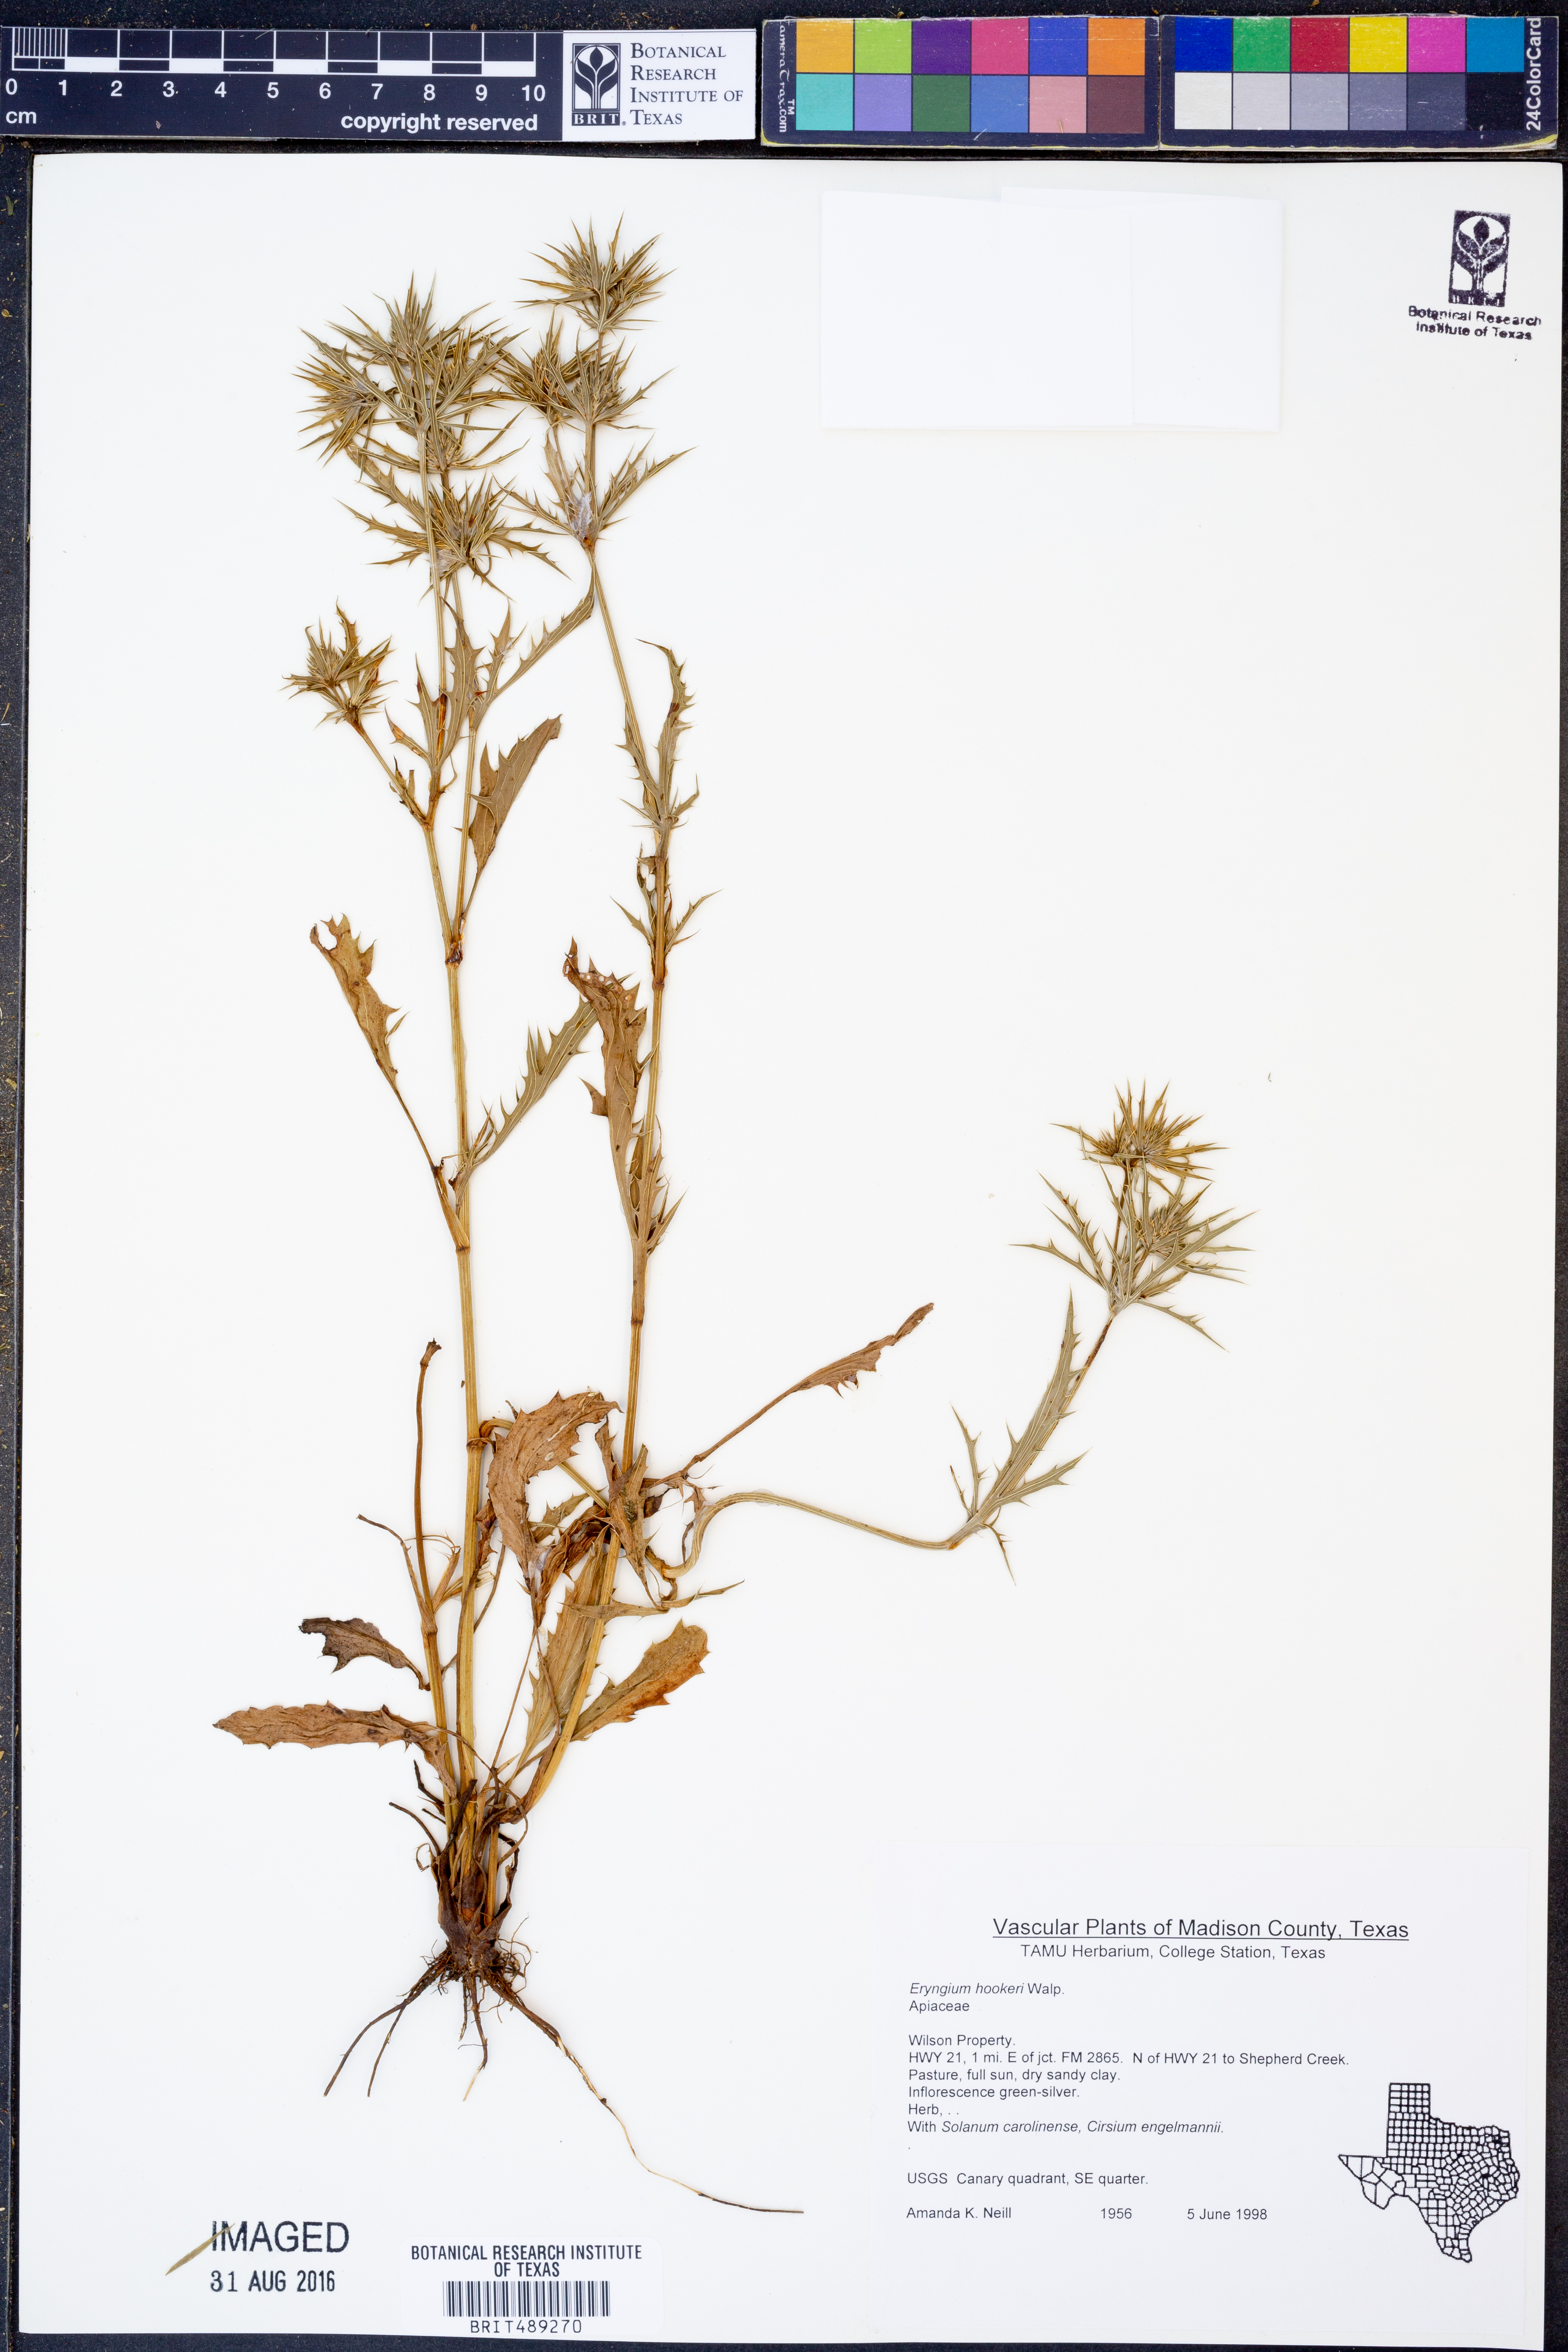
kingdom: Plantae
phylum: Tracheophyta
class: Magnoliopsida
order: Apiales
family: Apiaceae
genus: Eryngium
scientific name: Eryngium hookeri
